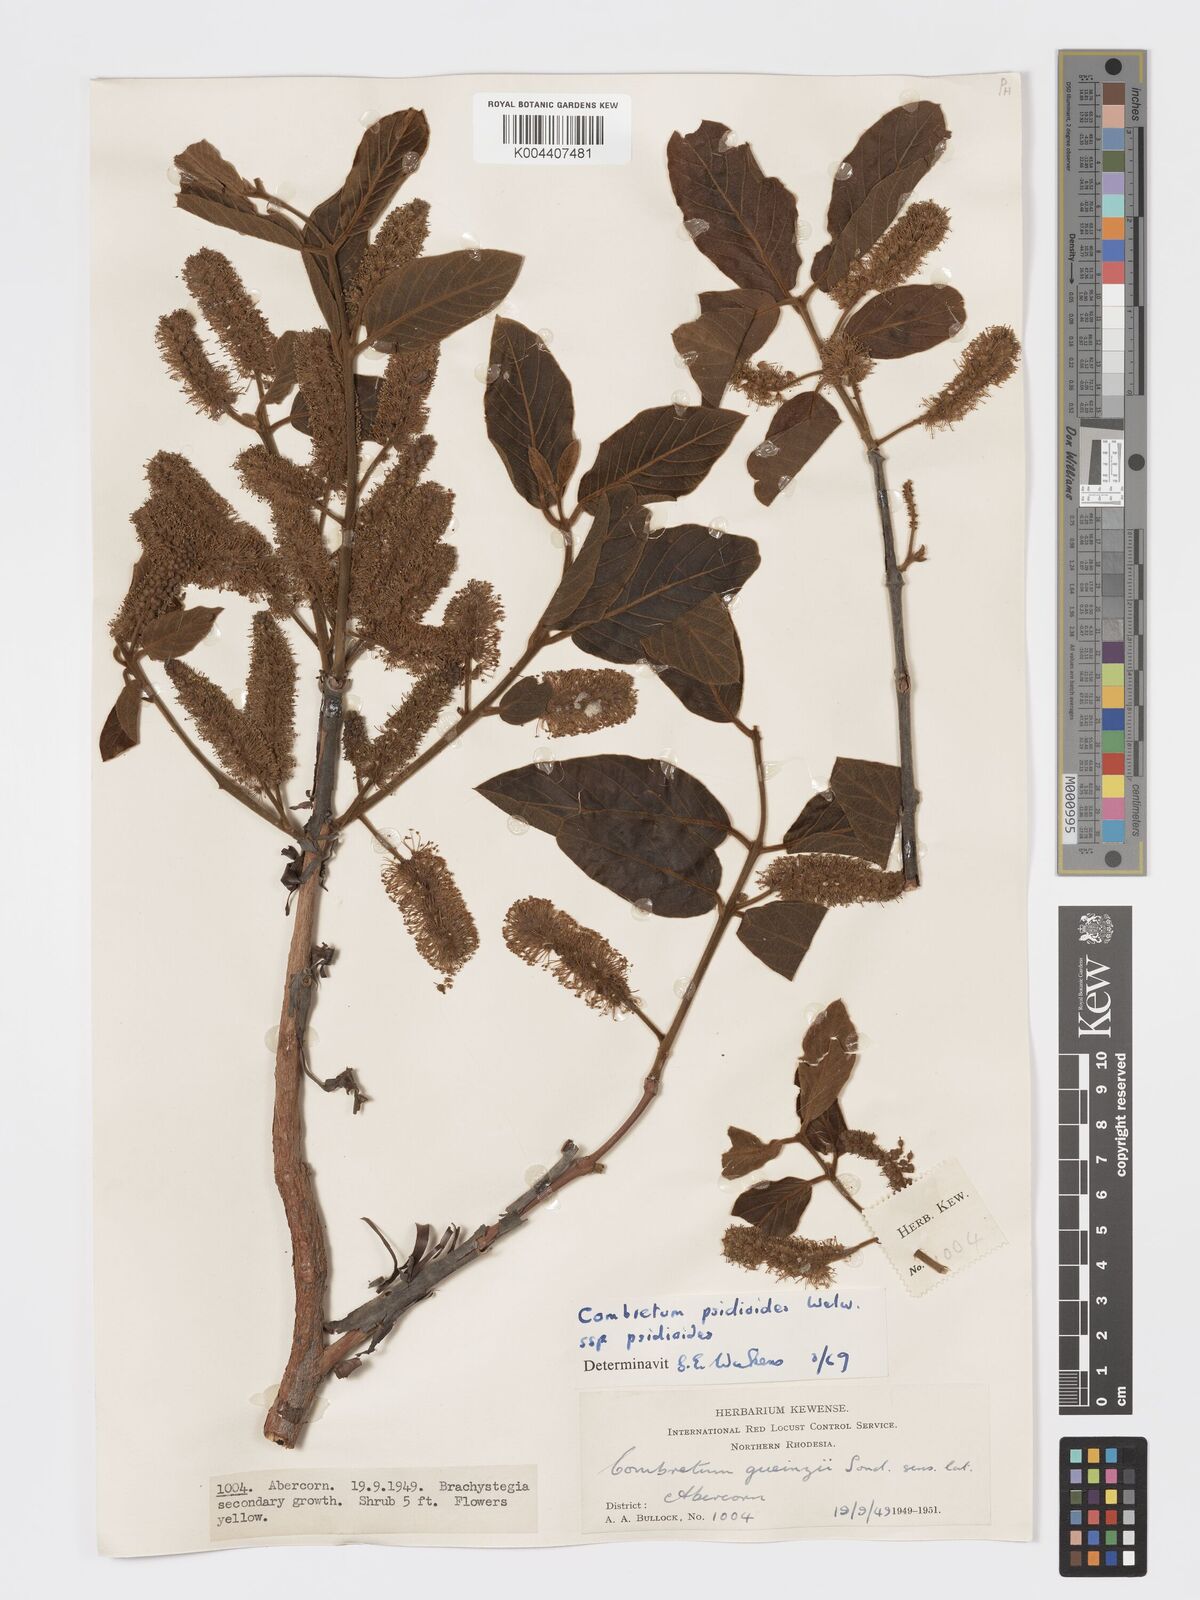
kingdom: Plantae
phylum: Tracheophyta
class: Magnoliopsida
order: Myrtales
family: Combretaceae
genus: Combretum
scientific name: Combretum psidioides
